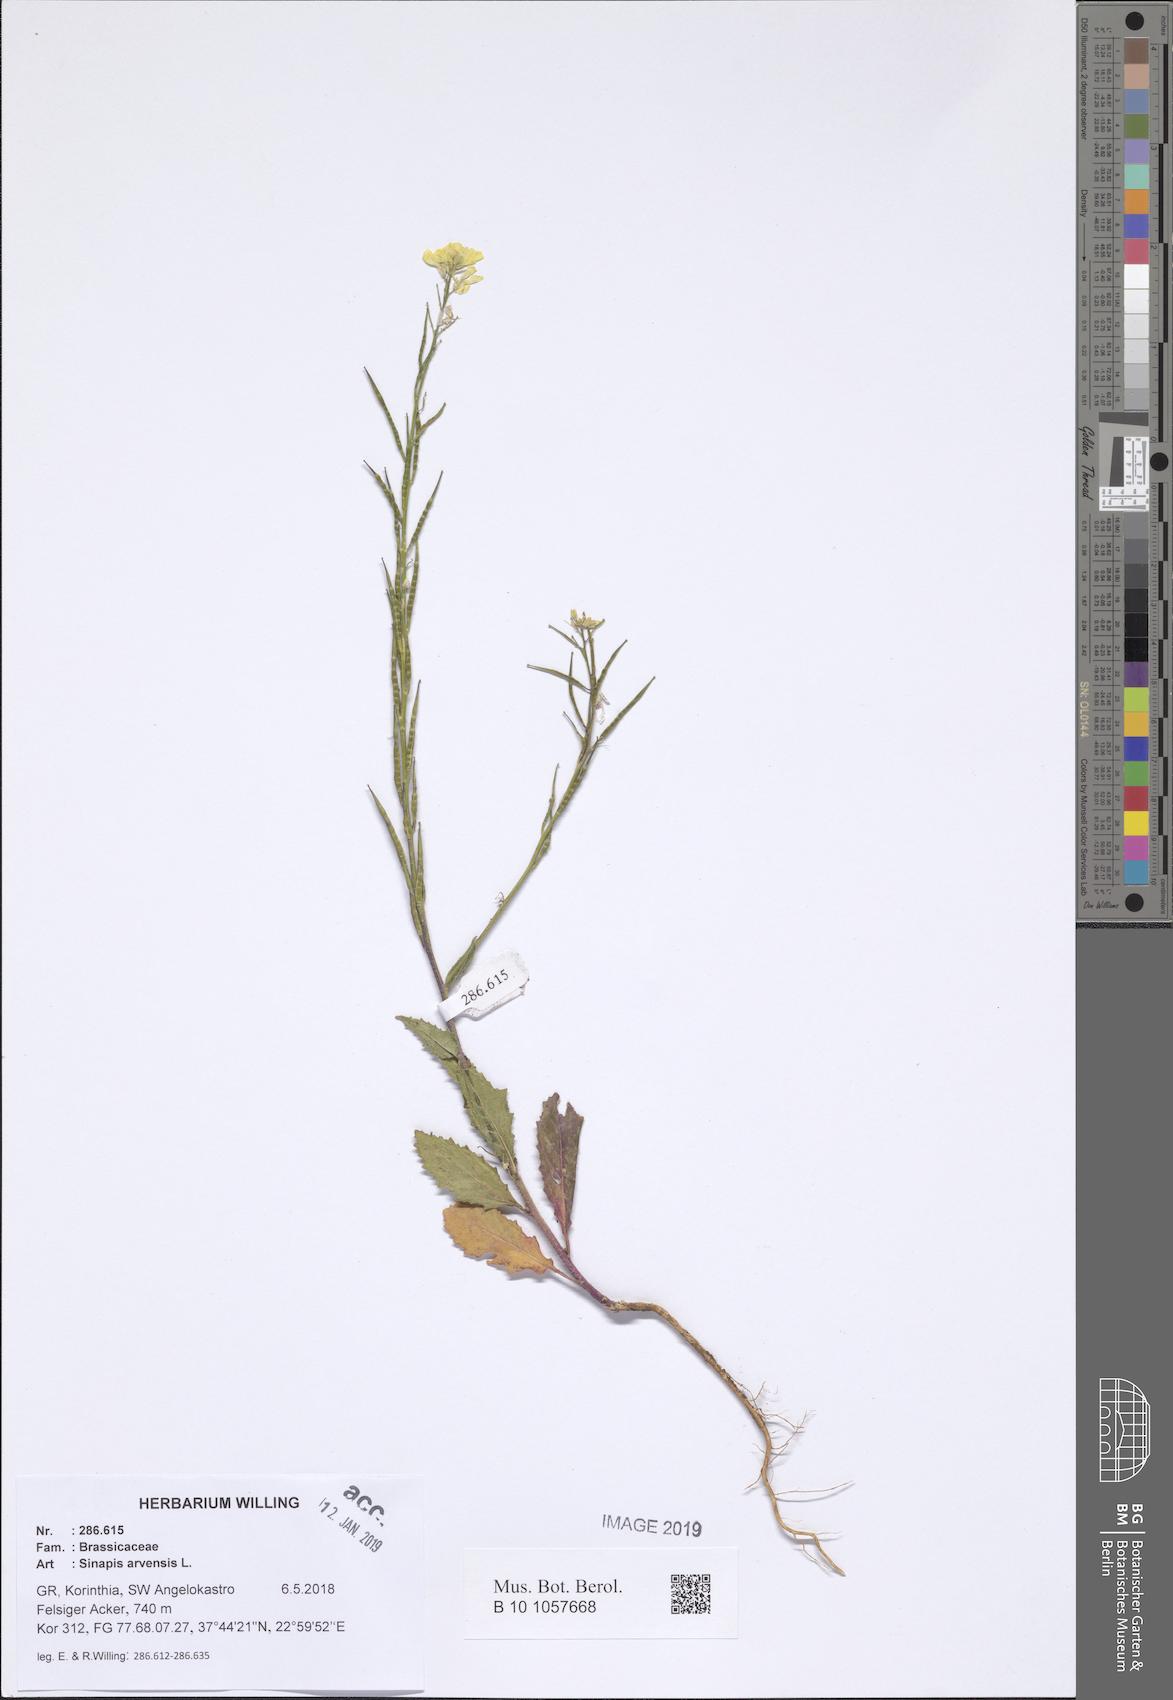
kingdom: Plantae
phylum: Tracheophyta
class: Magnoliopsida
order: Brassicales
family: Brassicaceae
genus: Sinapis
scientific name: Sinapis arvensis
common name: Charlock
